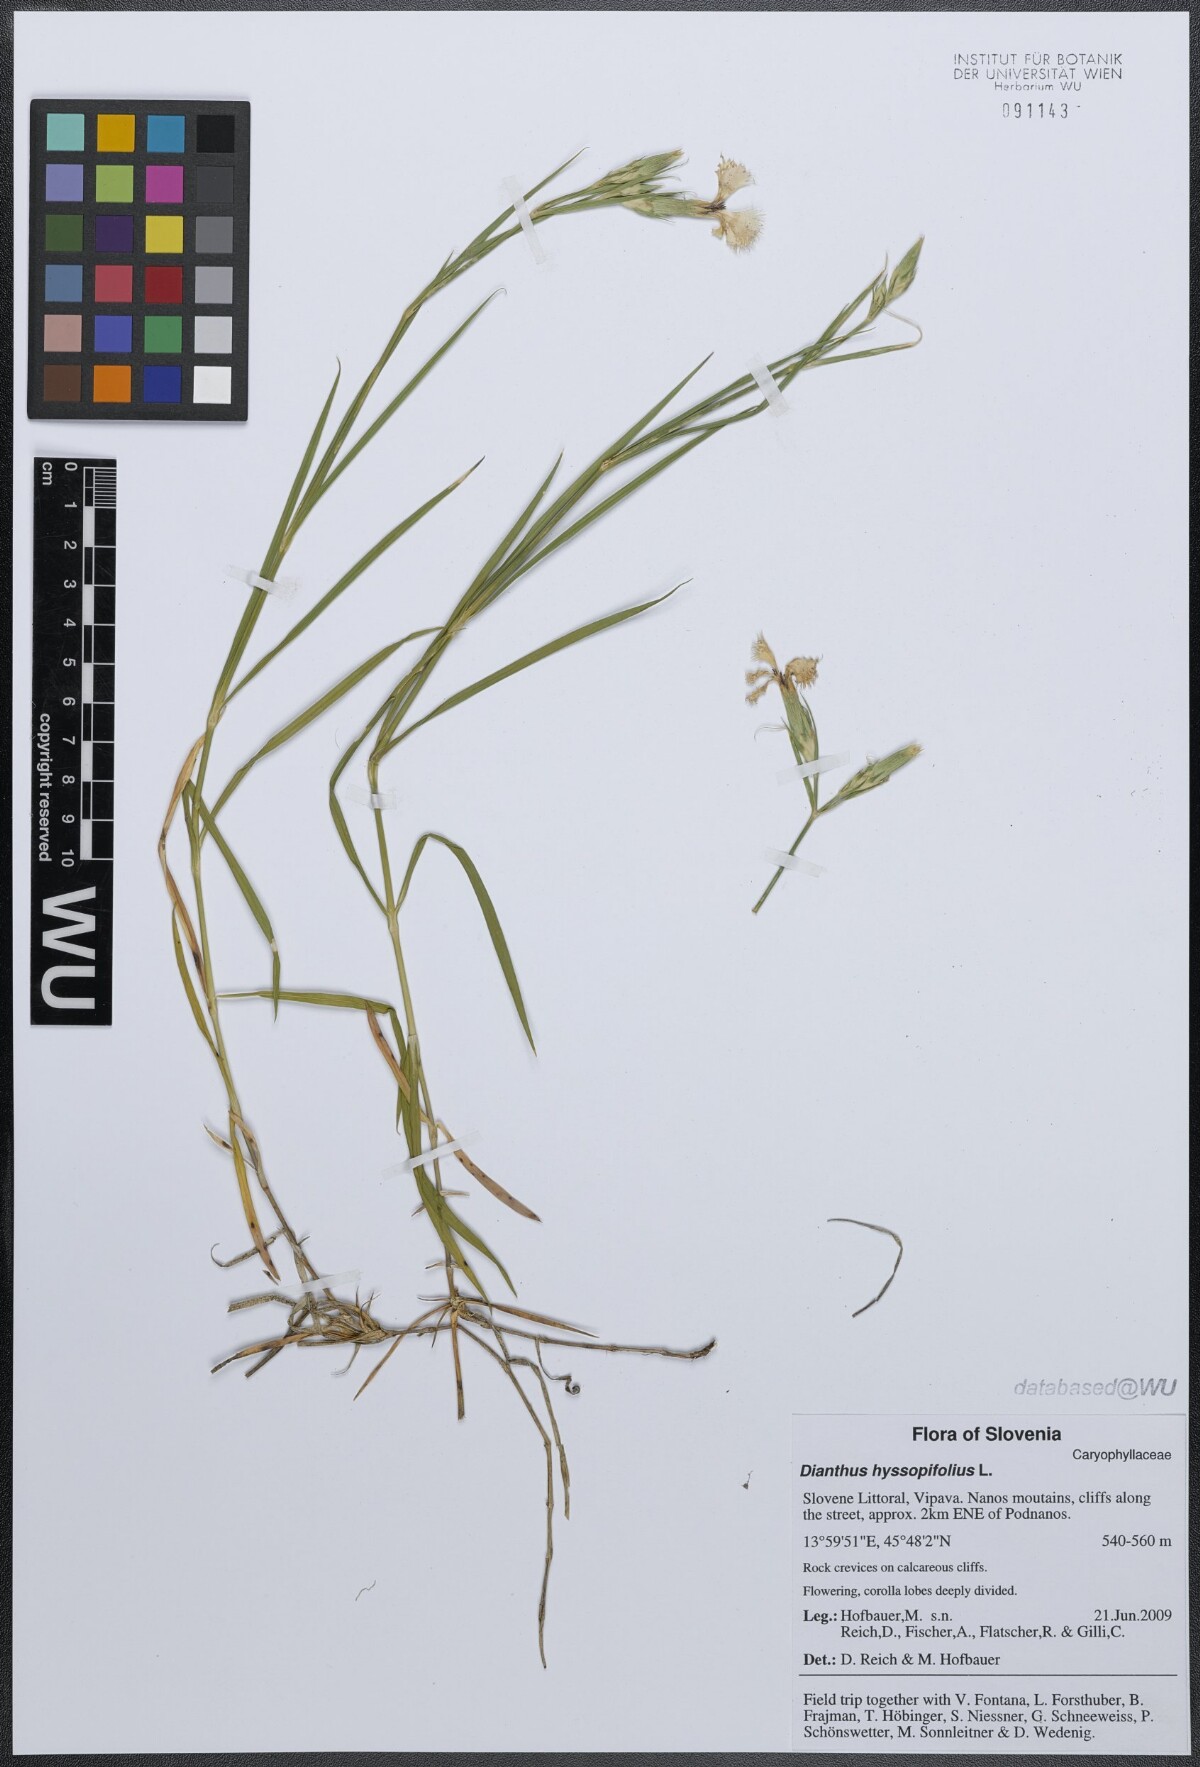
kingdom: Plantae
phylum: Tracheophyta
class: Magnoliopsida
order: Caryophyllales
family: Caryophyllaceae
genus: Dianthus
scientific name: Dianthus hyssopifolius
